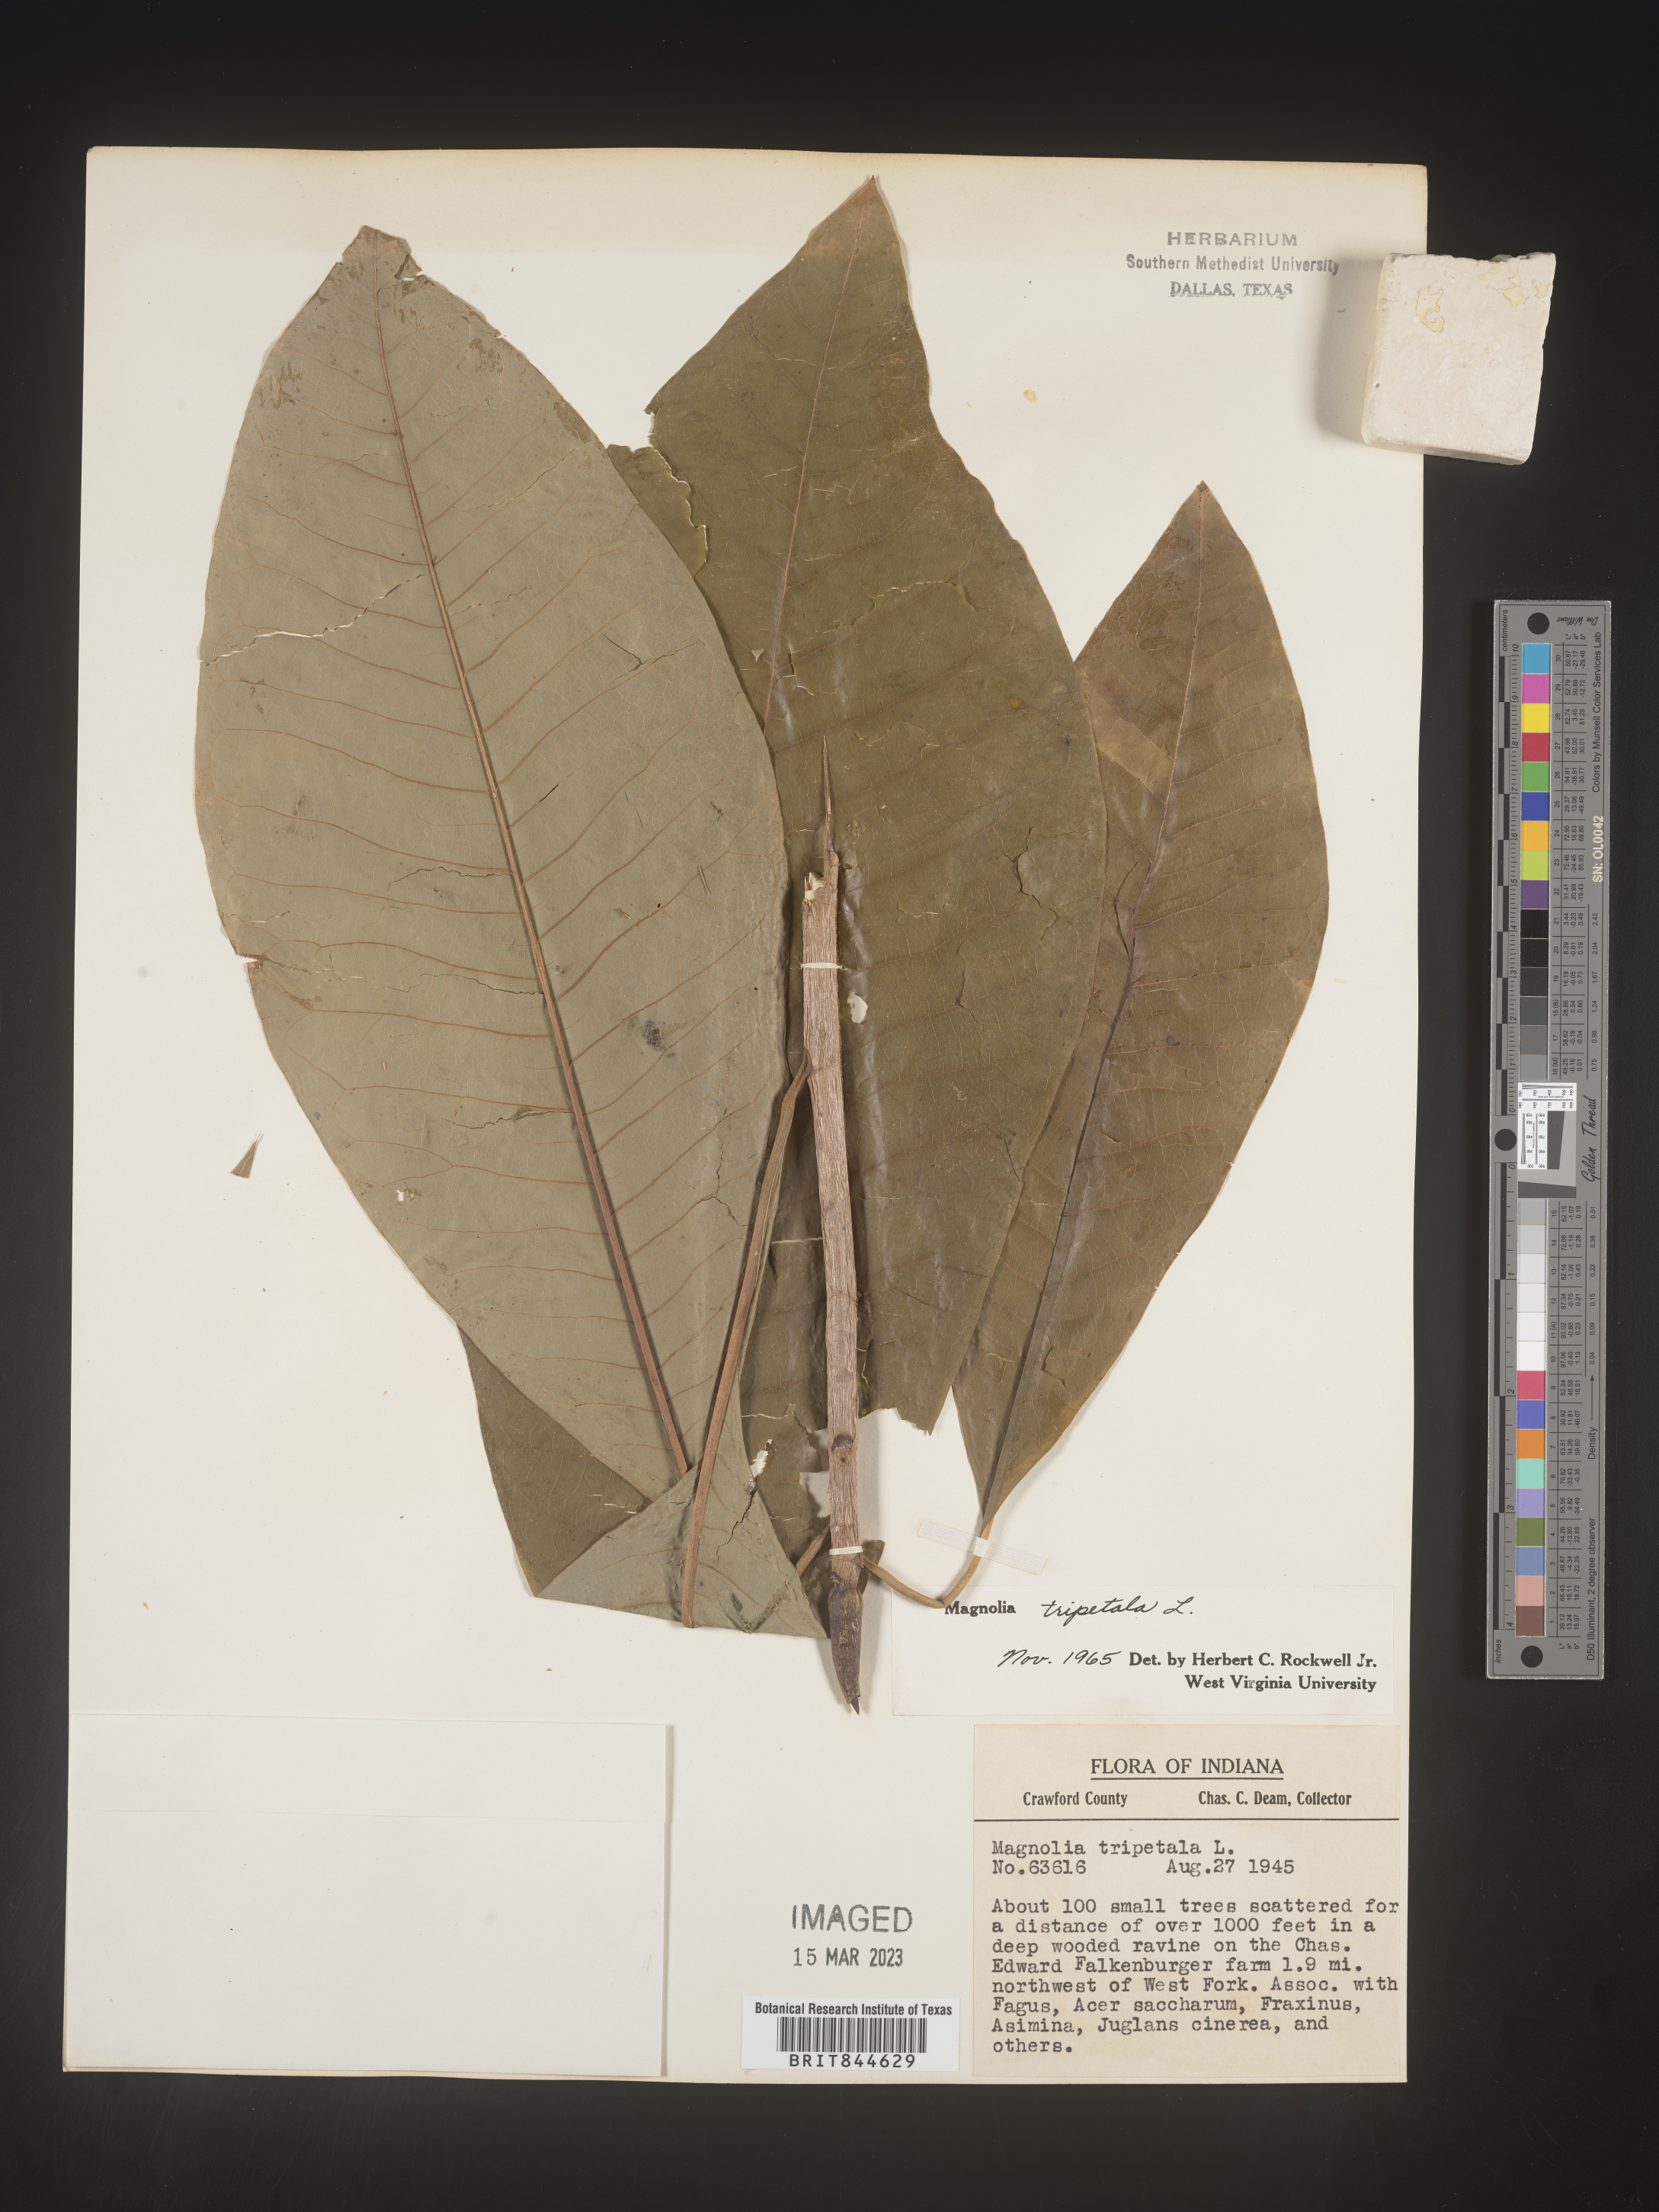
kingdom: Plantae
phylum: Tracheophyta
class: Magnoliopsida
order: Magnoliales
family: Magnoliaceae
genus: Magnolia
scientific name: Magnolia tripetala
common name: Umbrella magnolia
